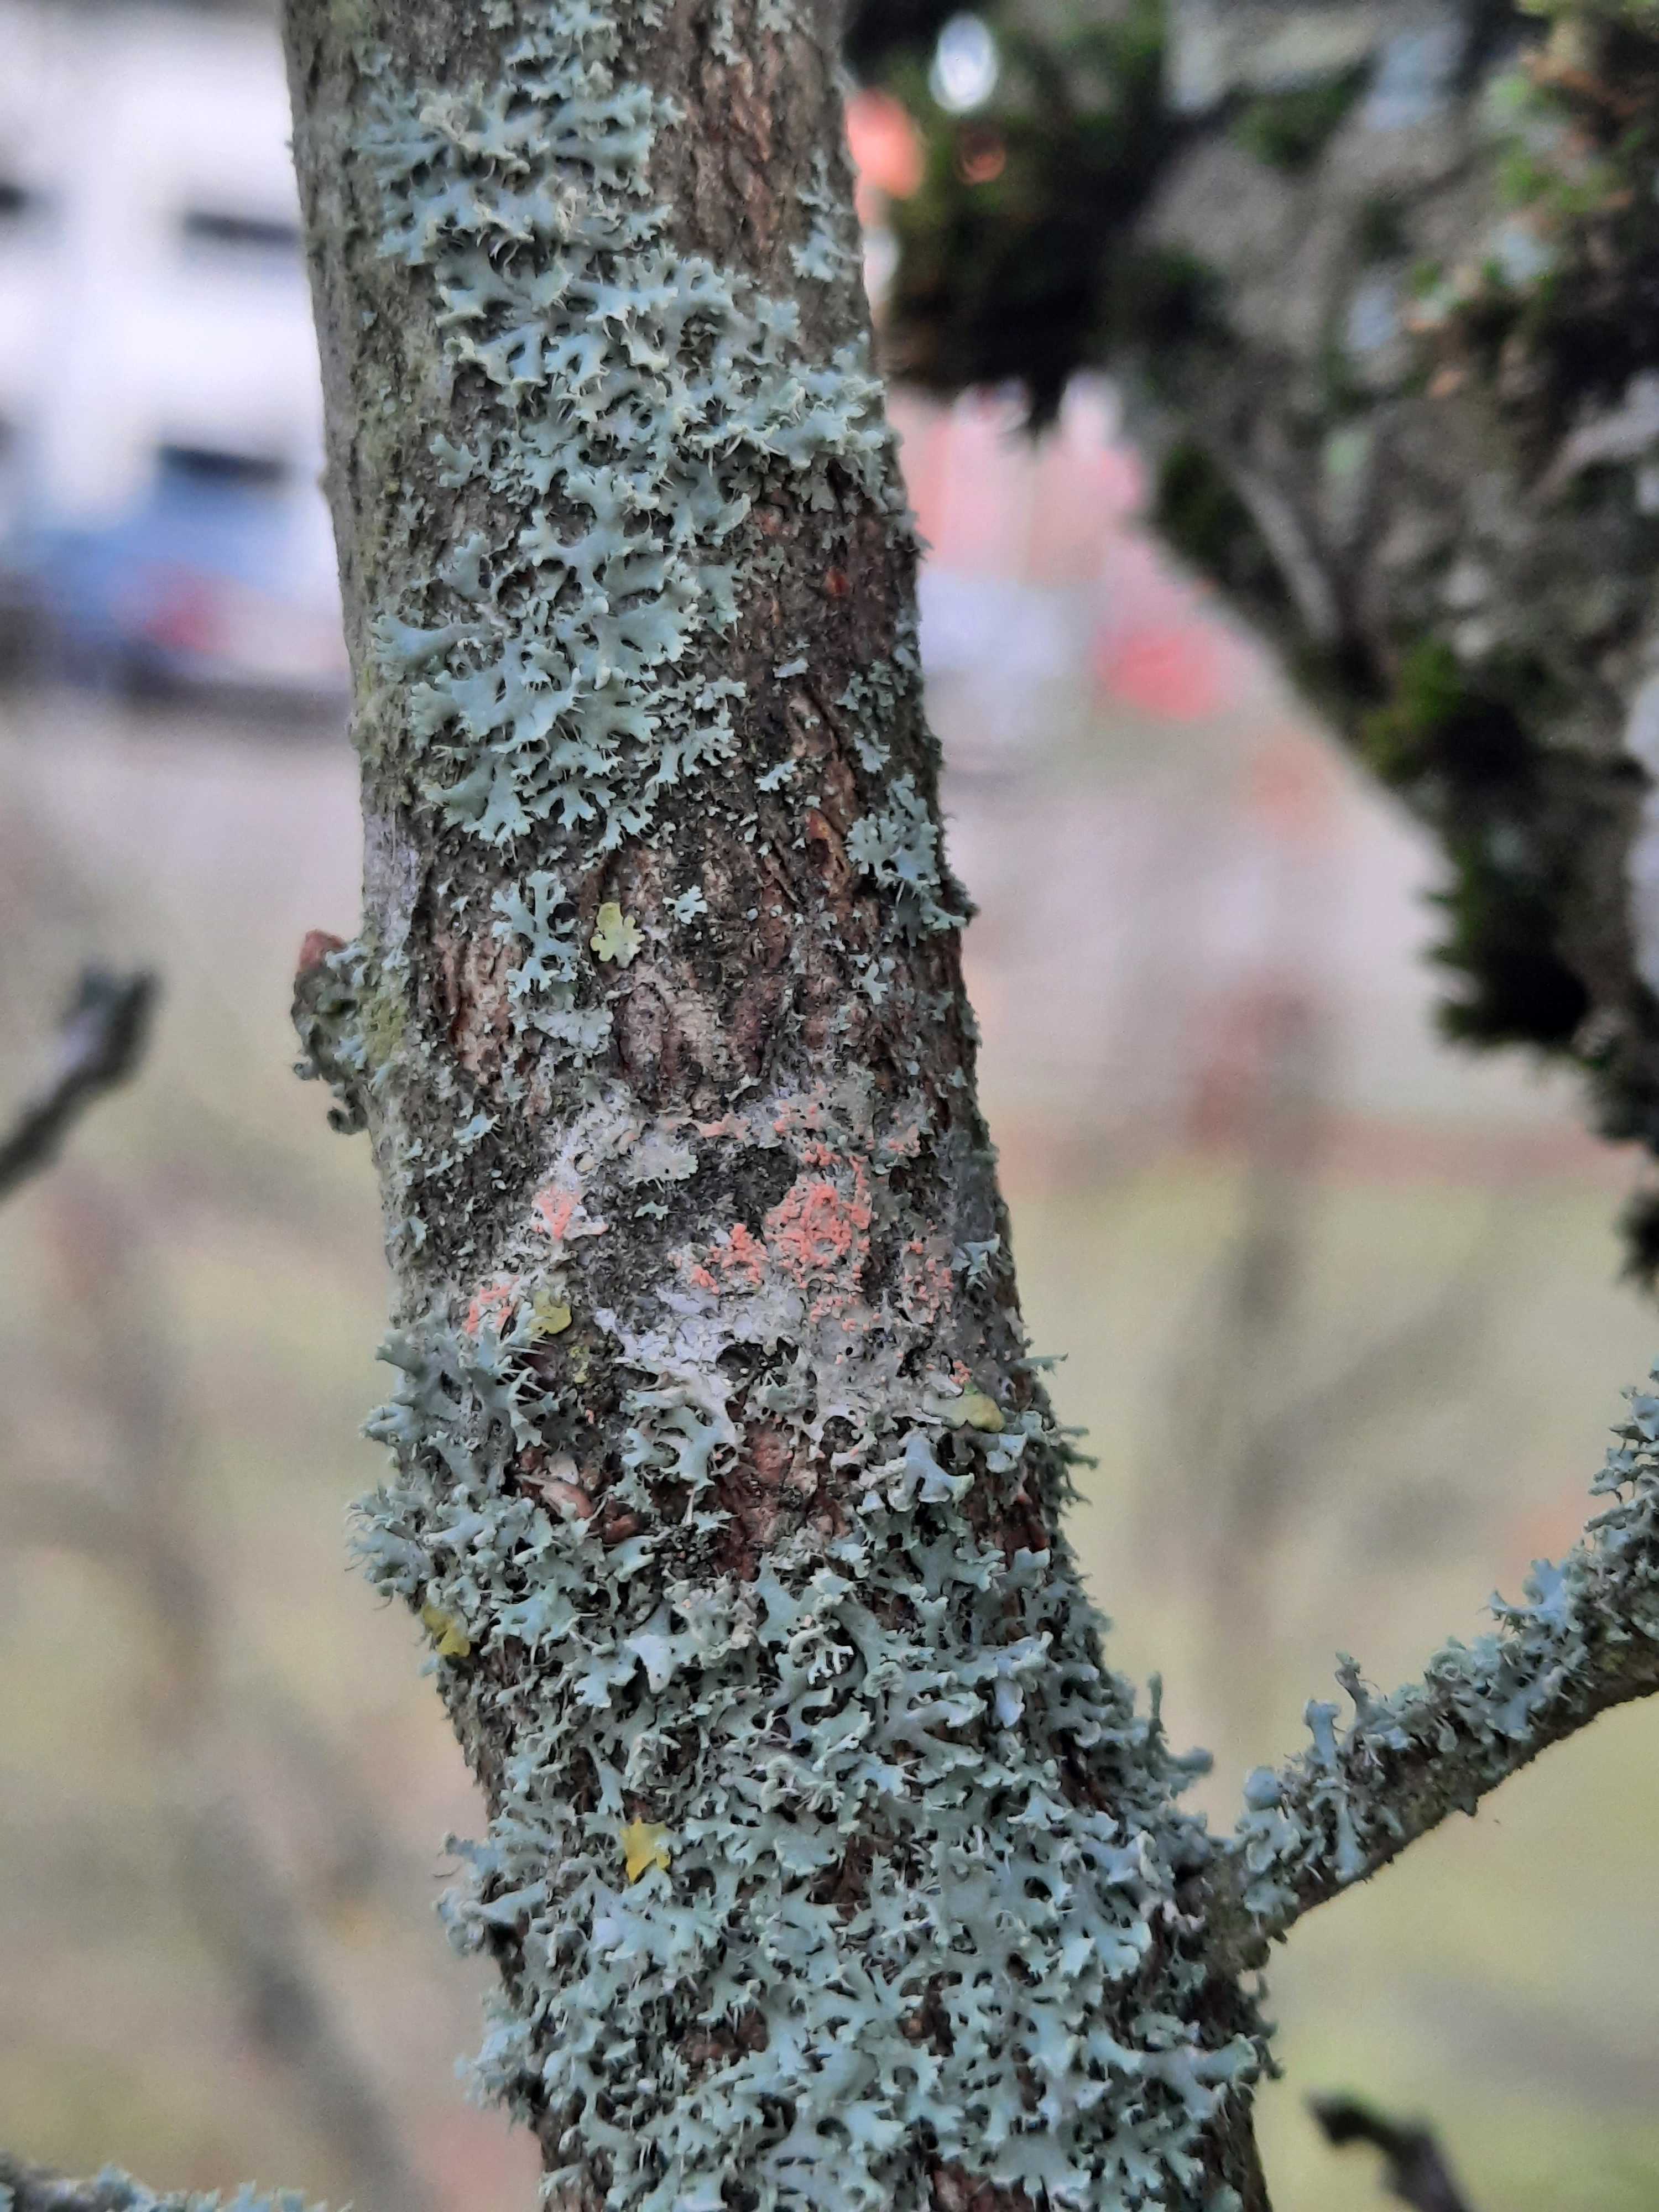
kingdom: Fungi
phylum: Basidiomycota
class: Agaricomycetes
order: Corticiales
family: Corticiaceae
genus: Erythricium
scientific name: Erythricium aurantiacum
